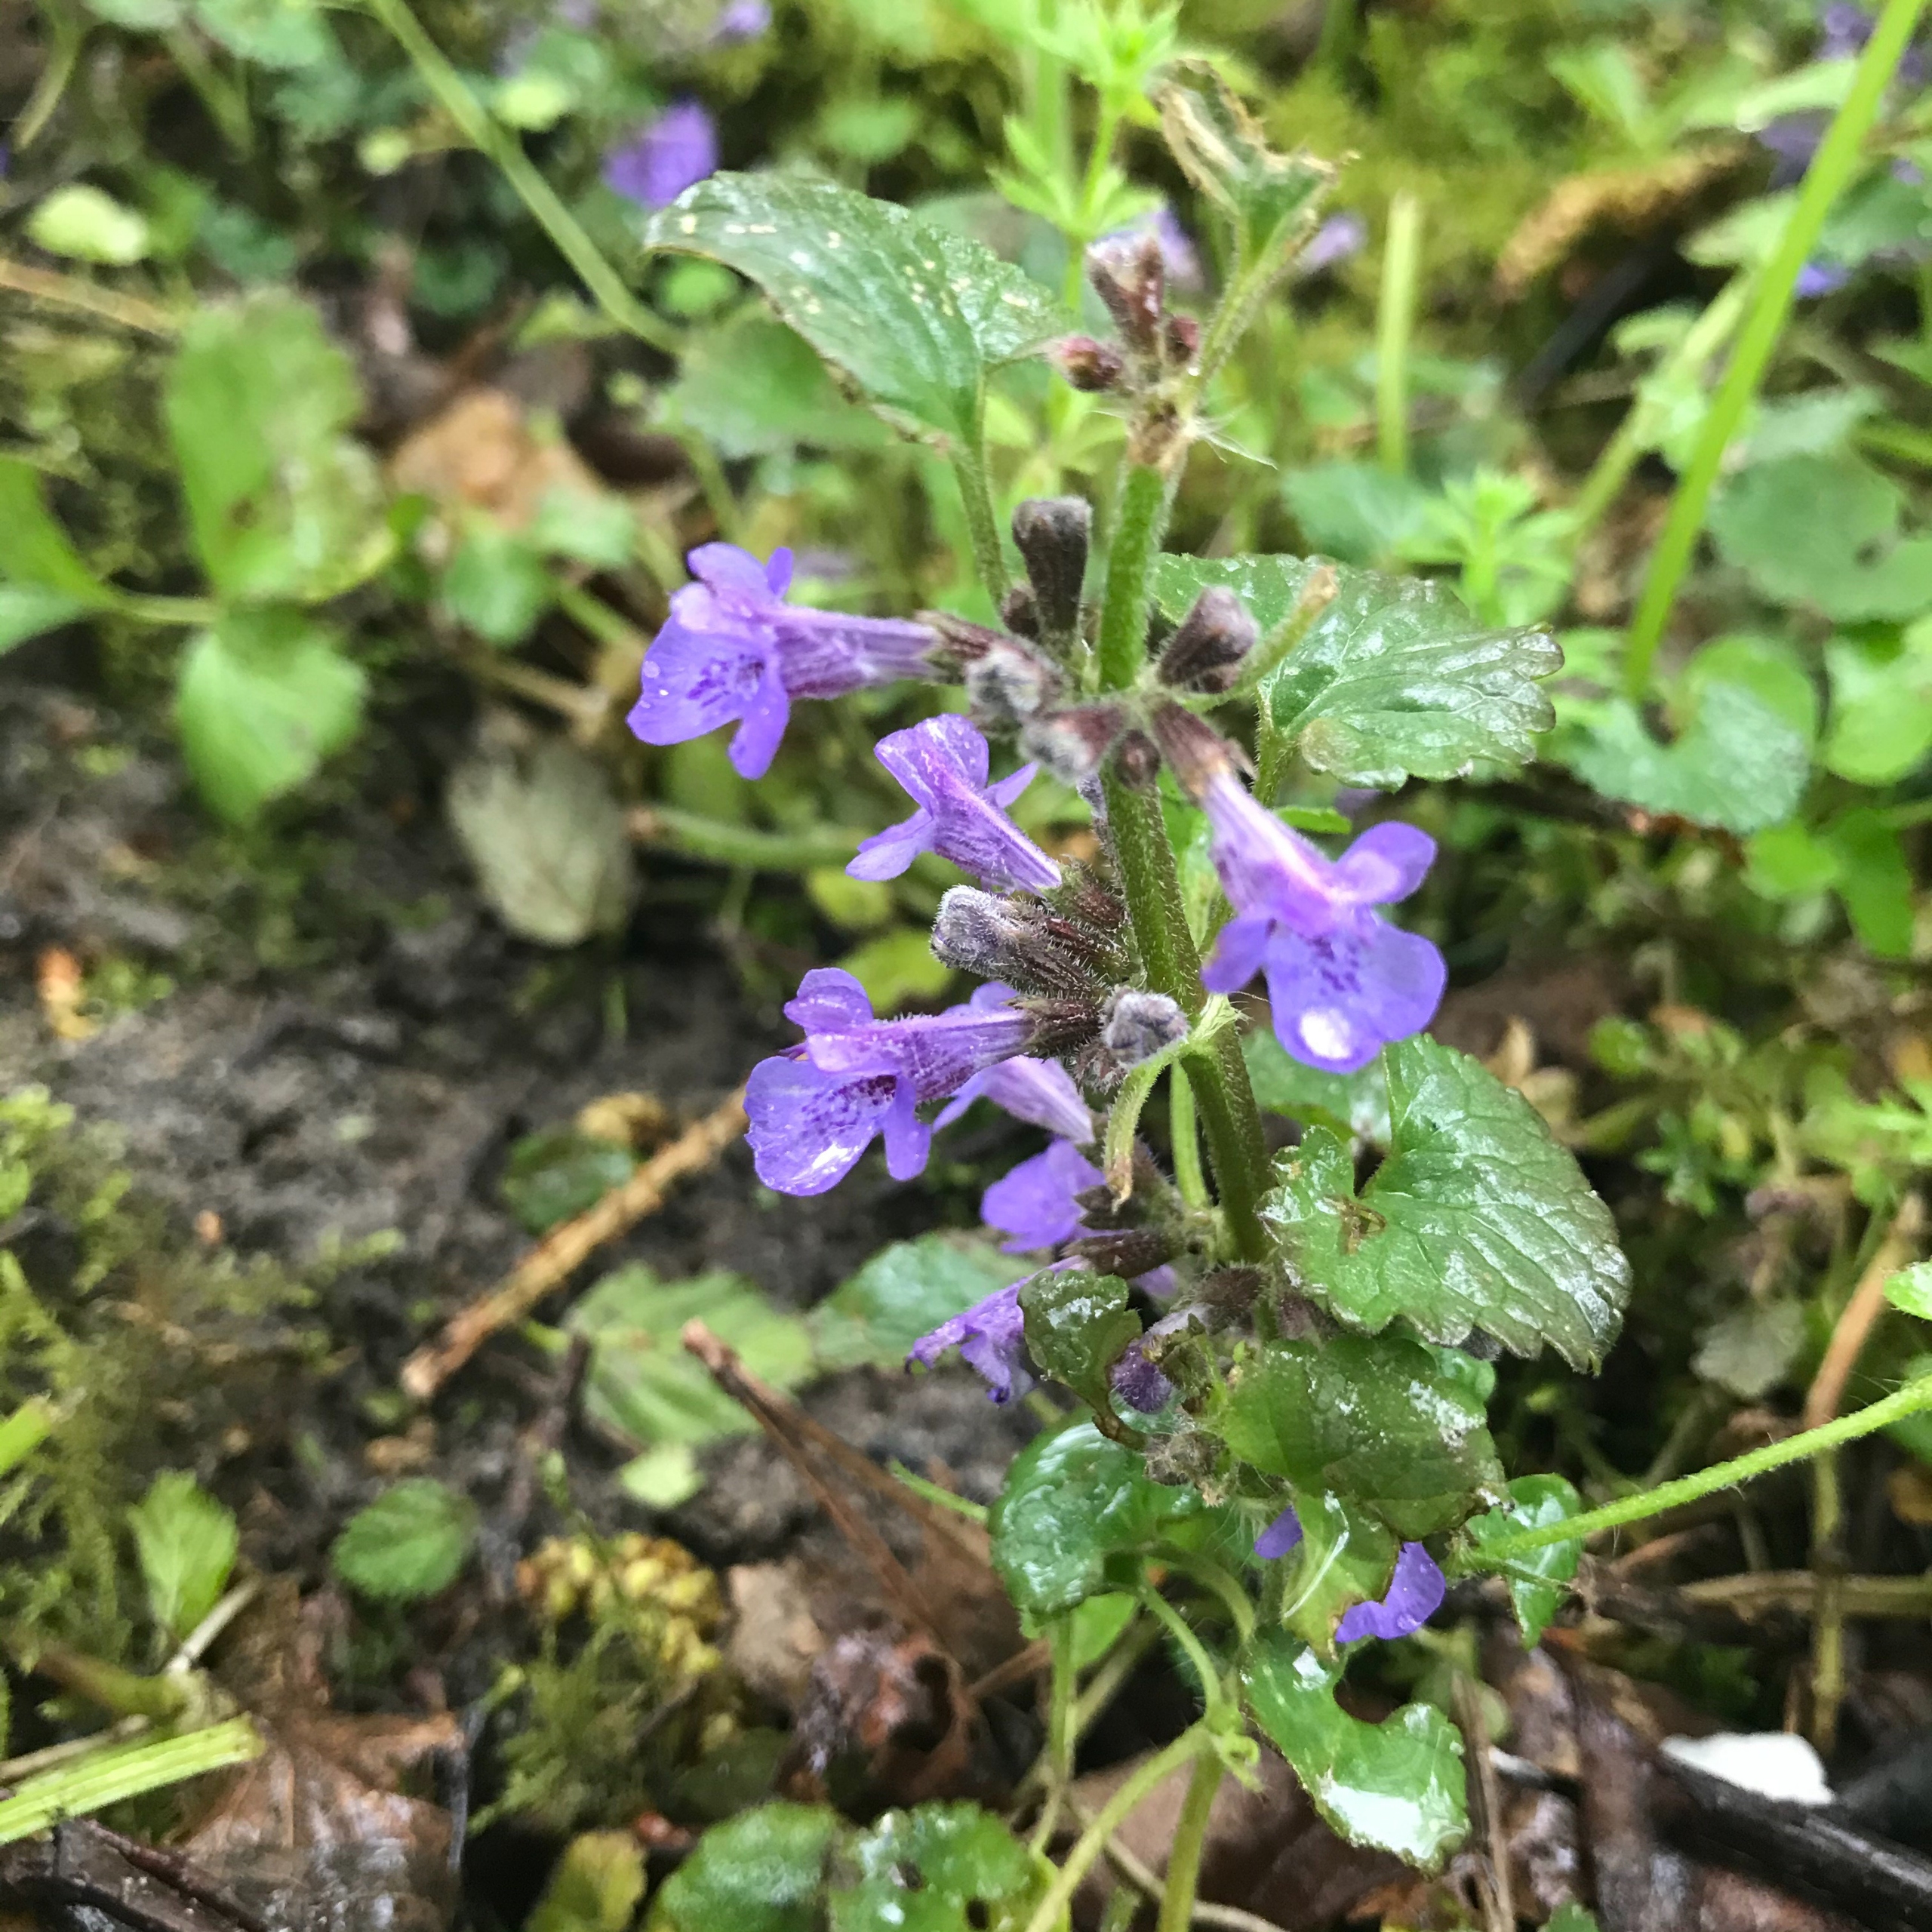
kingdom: Plantae
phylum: Tracheophyta
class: Magnoliopsida
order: Lamiales
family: Lamiaceae
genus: Glechoma
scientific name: Glechoma hederacea
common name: Korsknap
